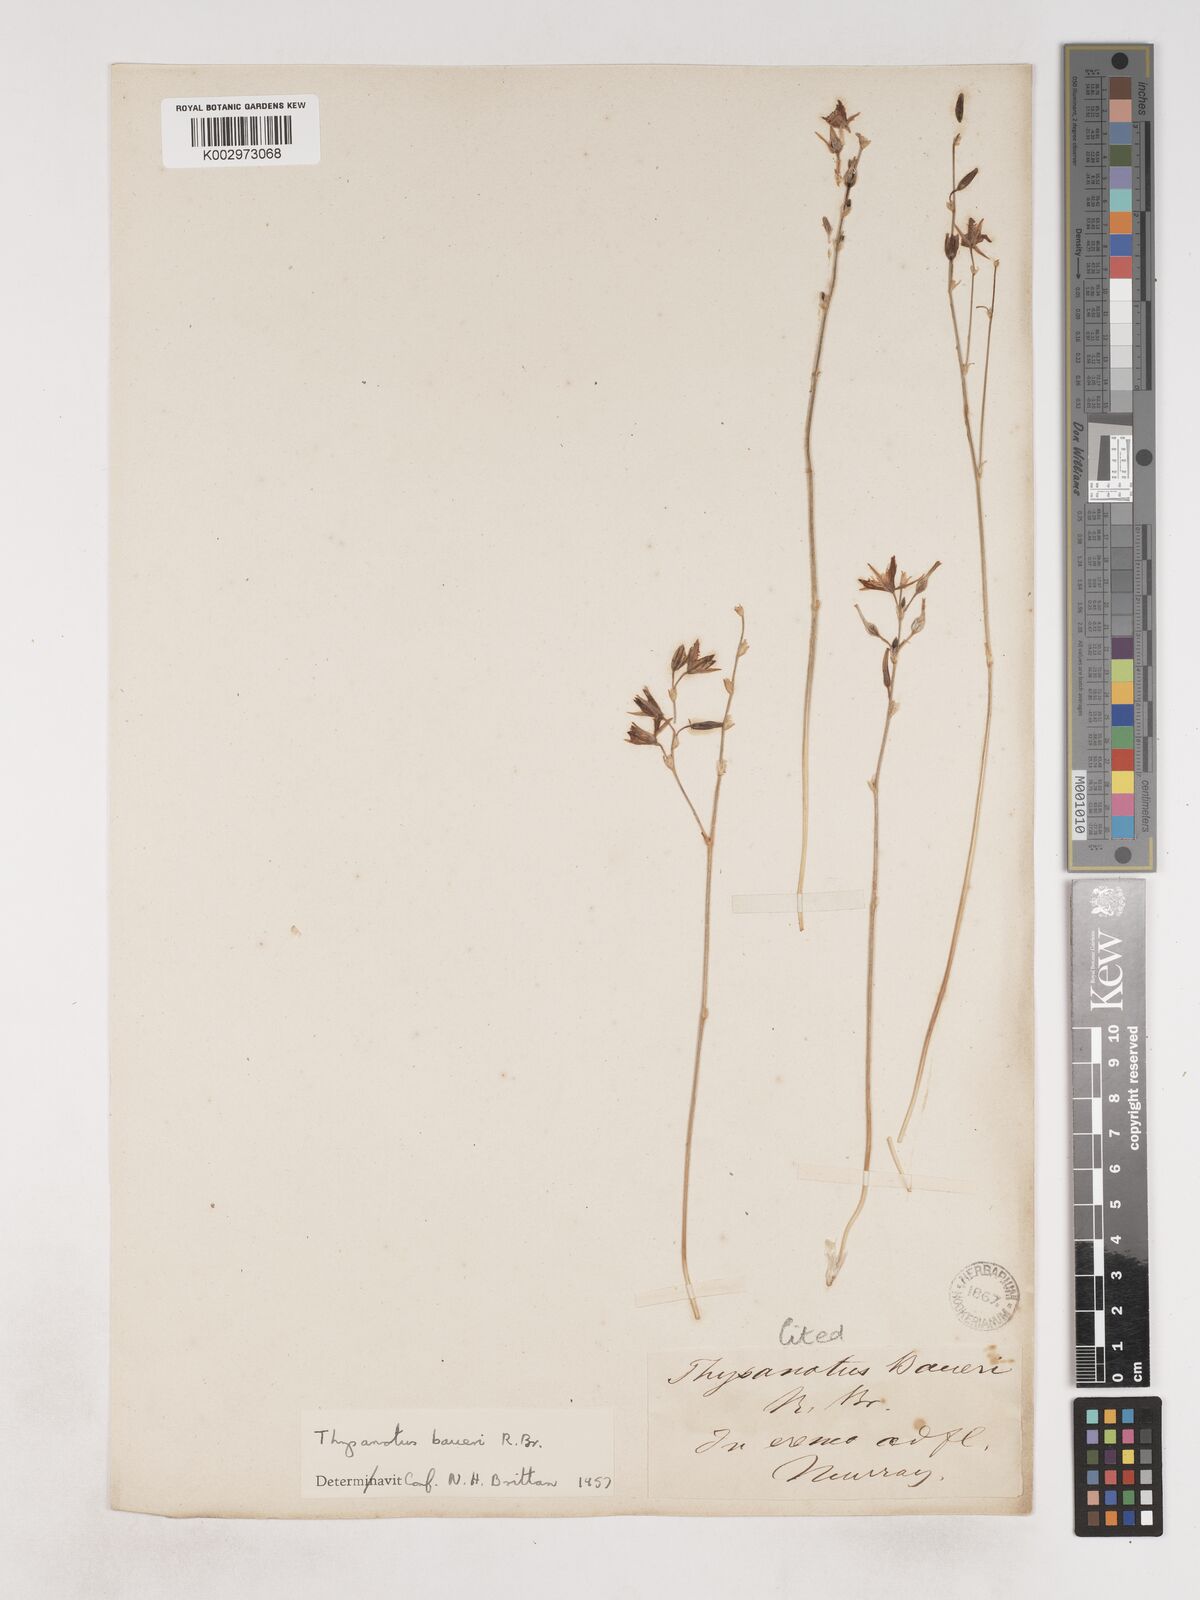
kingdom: Plantae
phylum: Tracheophyta
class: Liliopsida
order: Asparagales
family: Asparagaceae
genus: Thysanotus
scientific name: Thysanotus baueri
